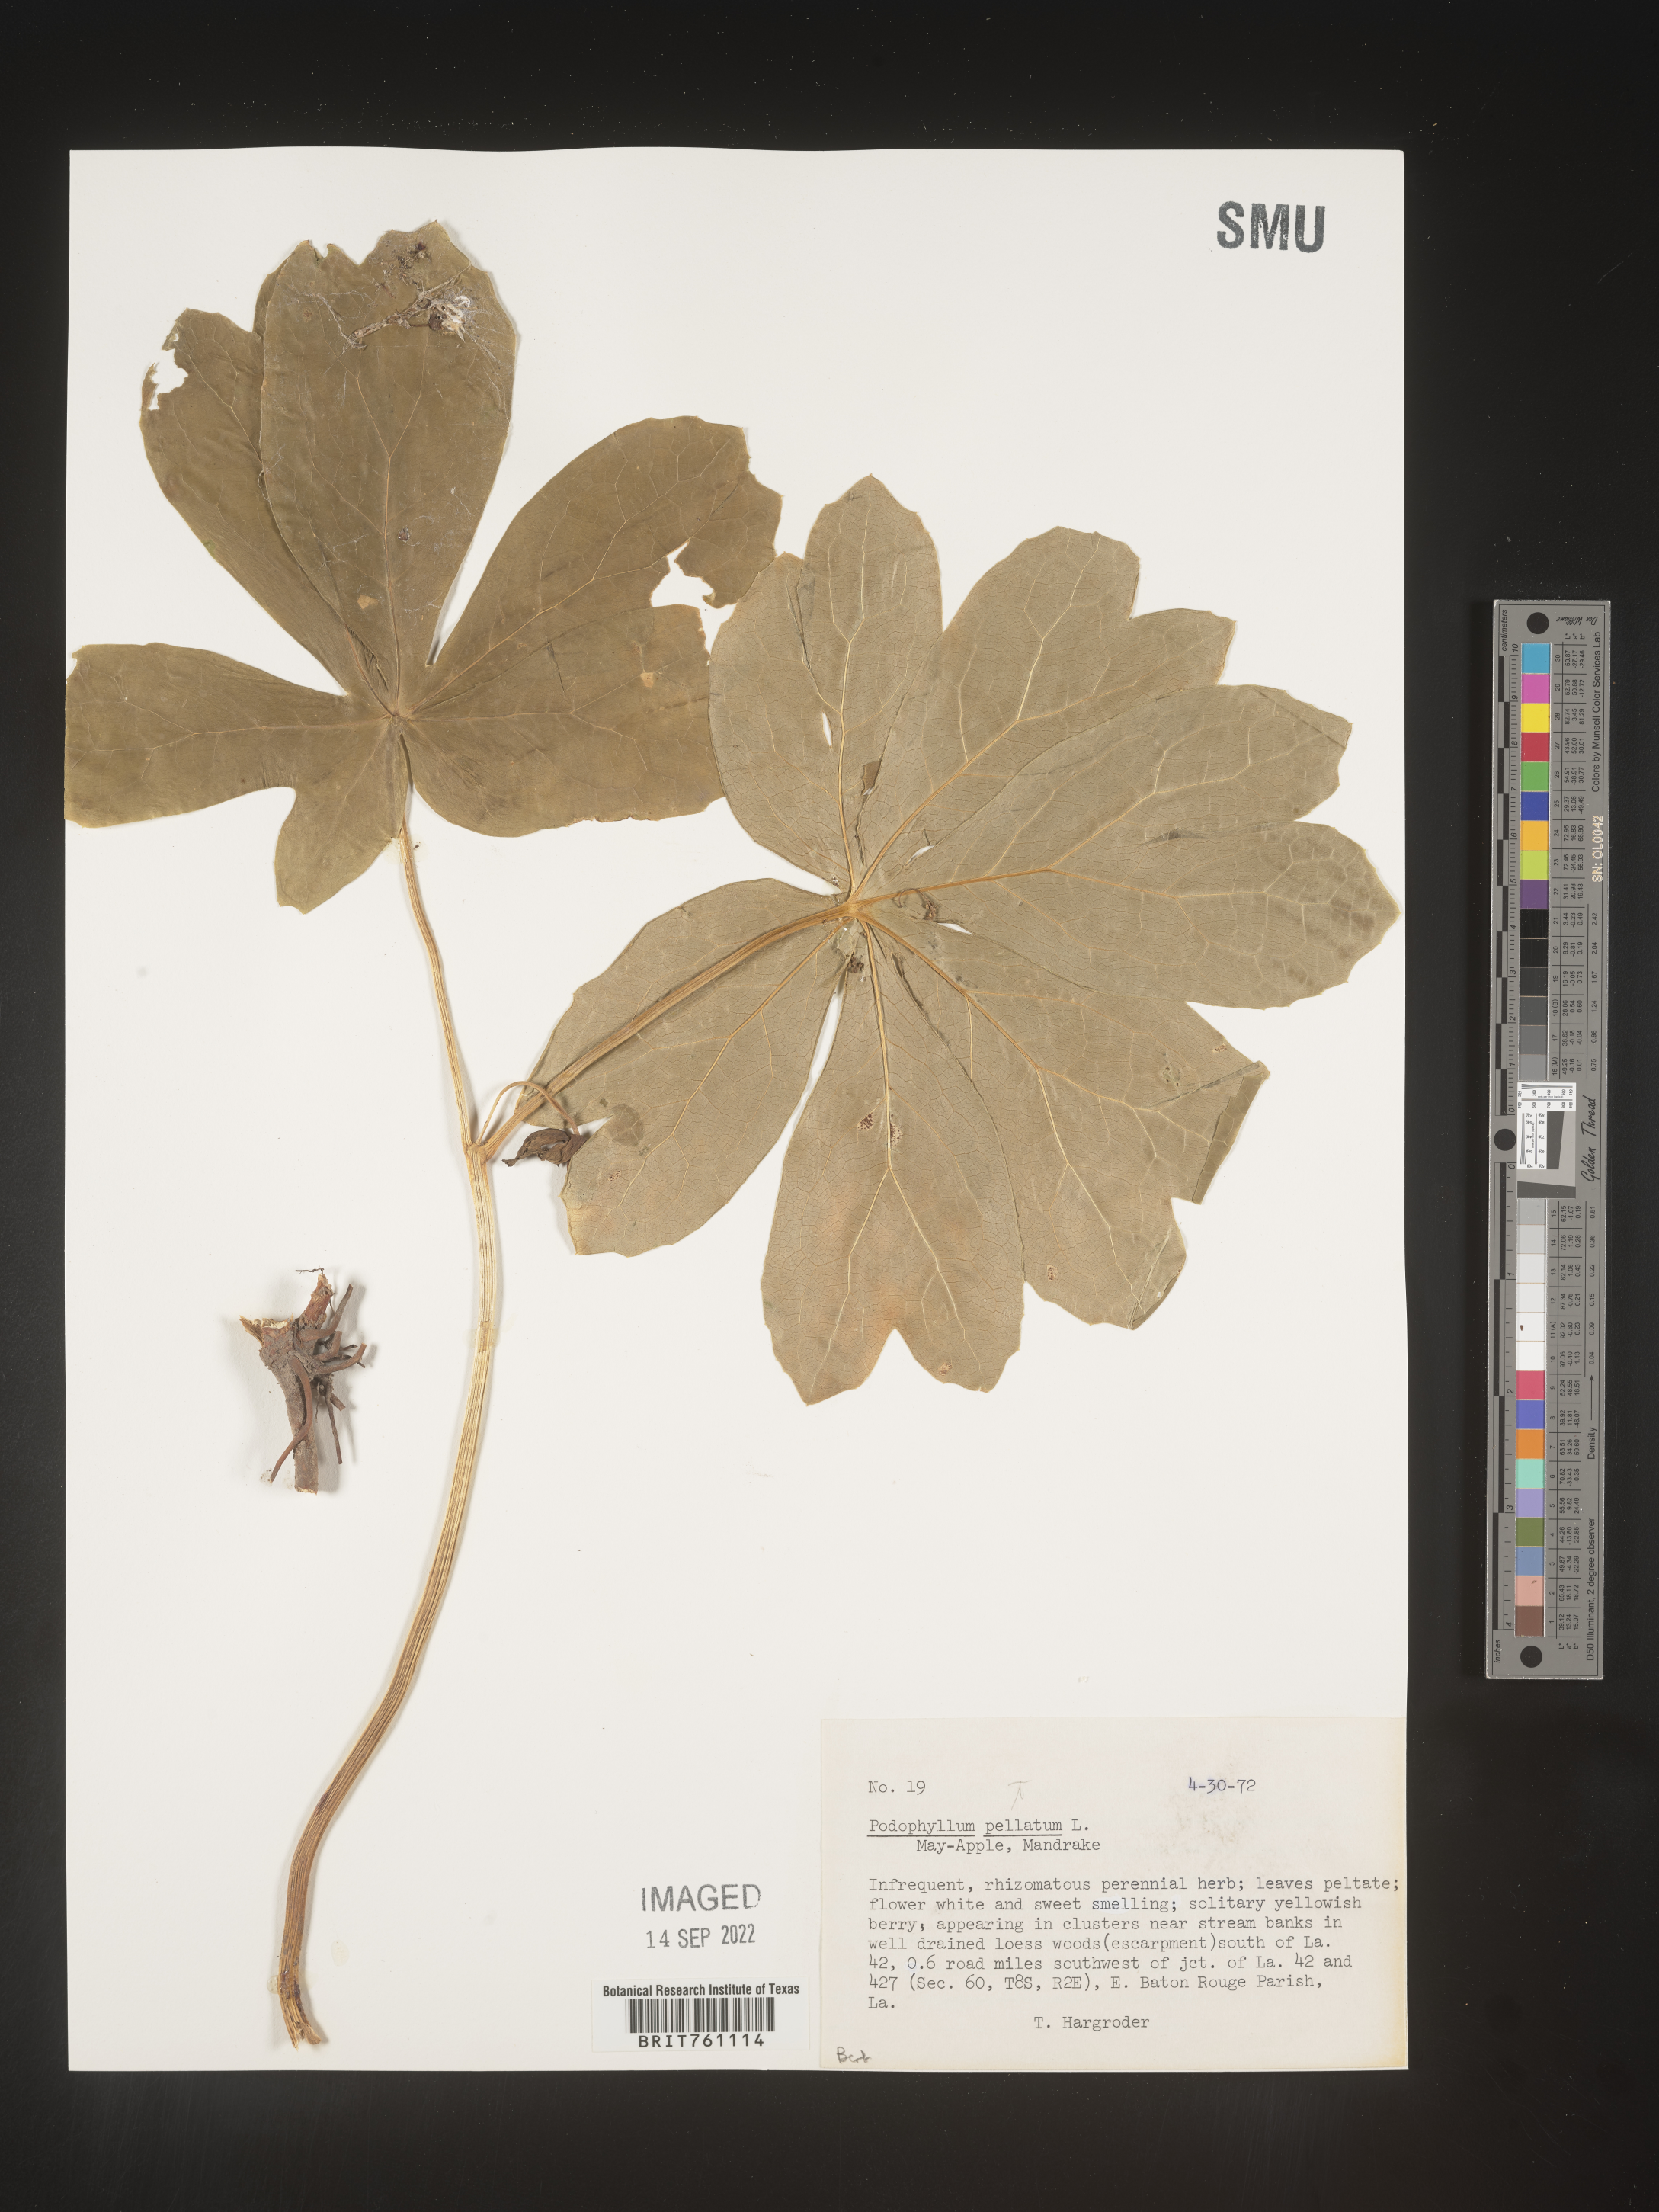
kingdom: Plantae
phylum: Tracheophyta
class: Magnoliopsida
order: Ranunculales
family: Berberidaceae
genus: Podophyllum
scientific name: Podophyllum peltatum
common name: Wild mandrake
